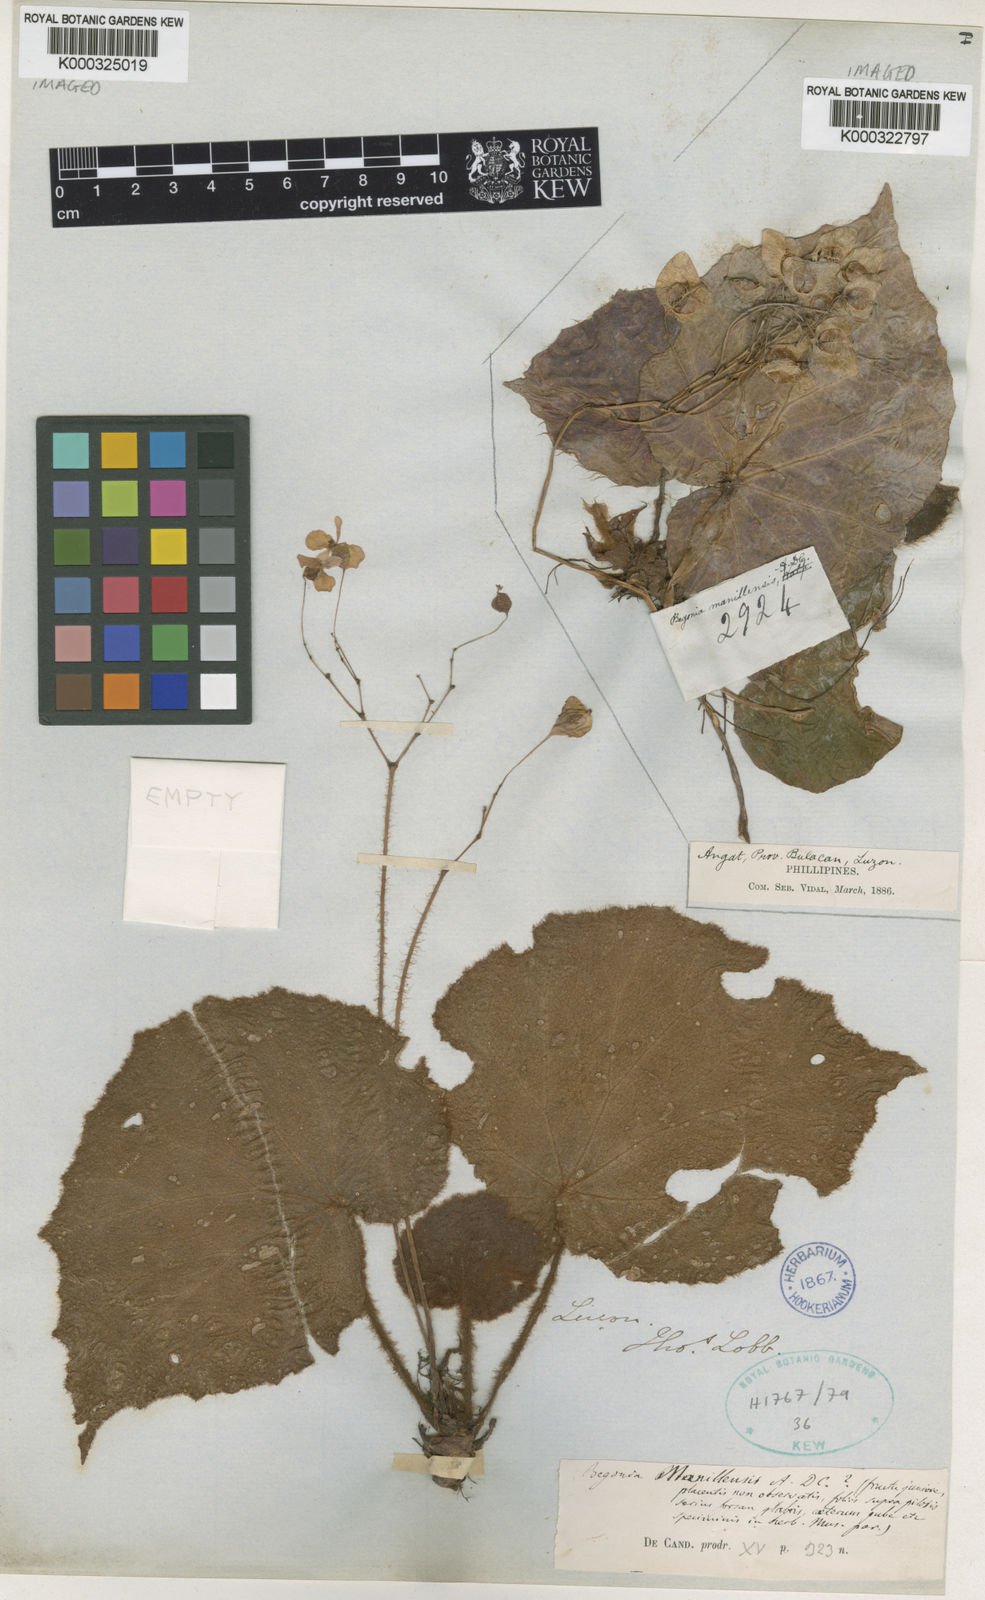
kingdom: Plantae
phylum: Tracheophyta
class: Magnoliopsida
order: Cucurbitales
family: Begoniaceae
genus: Begonia
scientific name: Begonia manillensis
